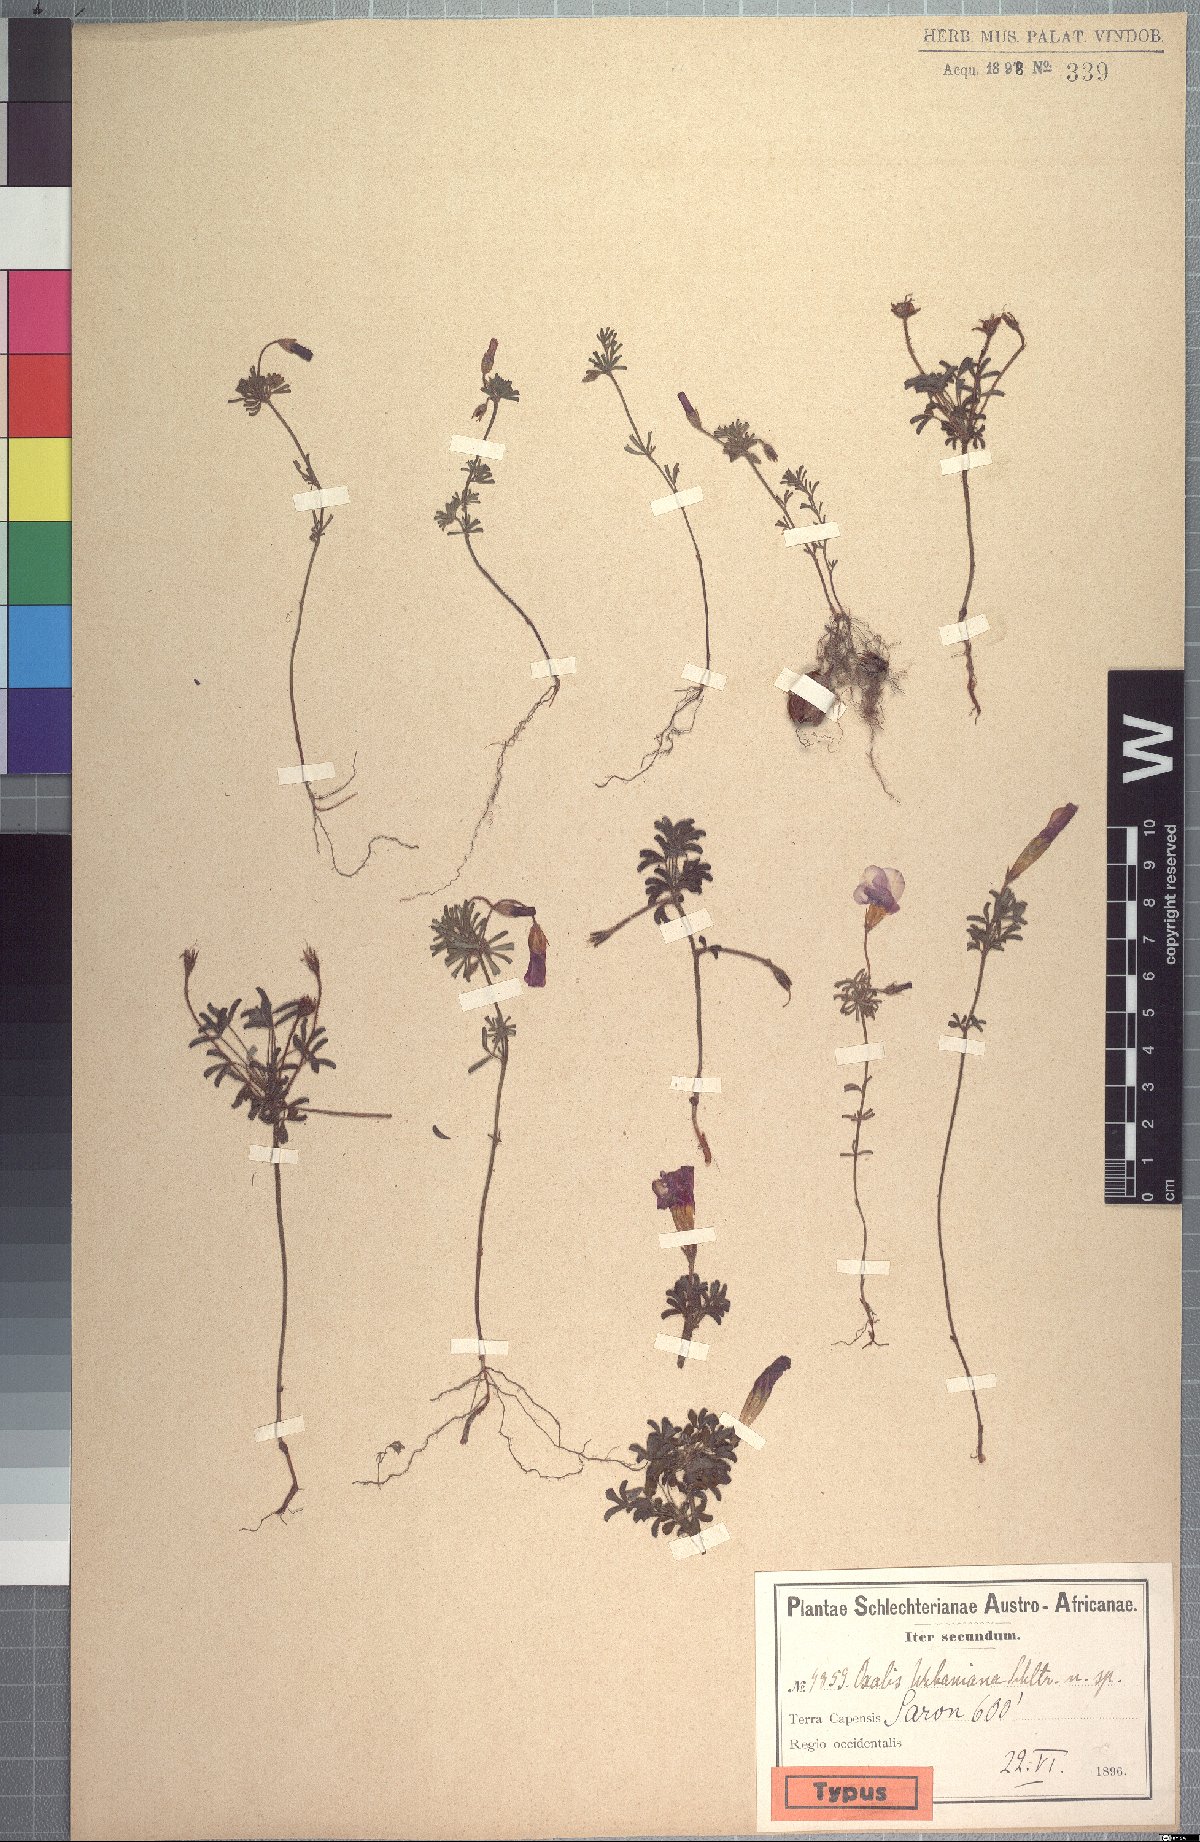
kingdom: Plantae
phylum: Tracheophyta
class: Magnoliopsida
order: Oxalidales
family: Oxalidaceae
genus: Oxalis
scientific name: Oxalis goniorhiza
